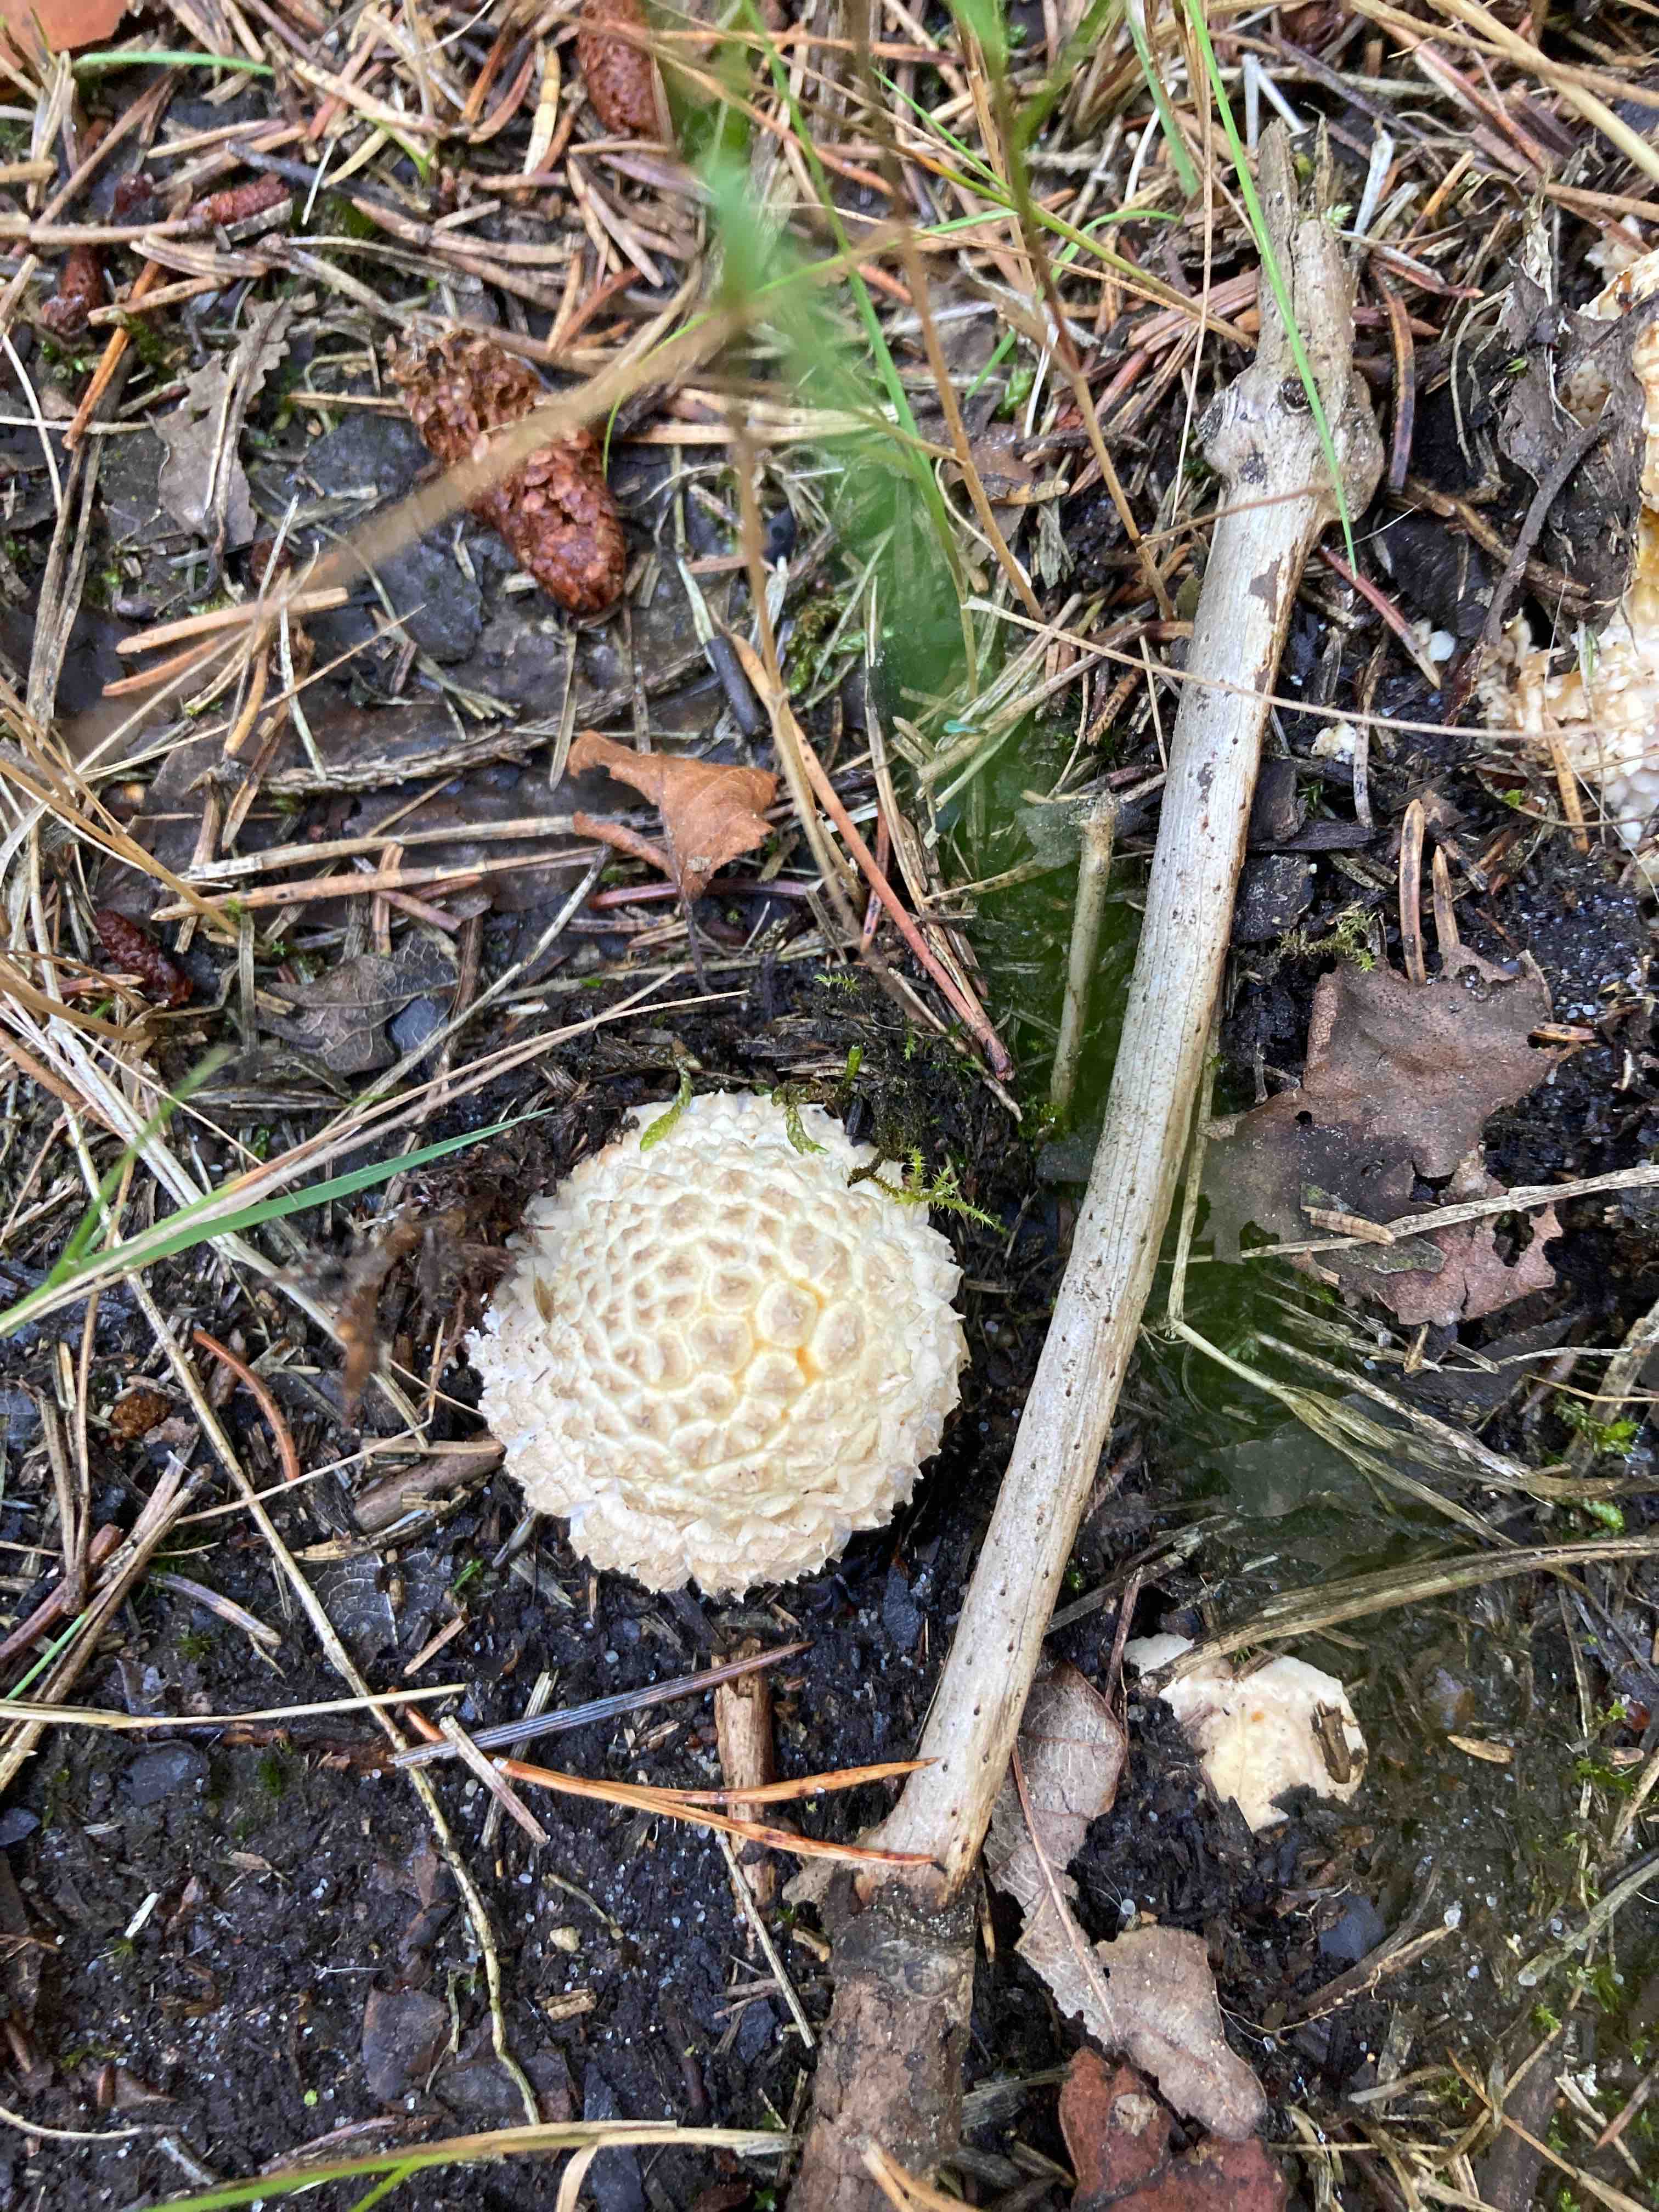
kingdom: Fungi
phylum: Basidiomycota
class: Agaricomycetes
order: Agaricales
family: Amanitaceae
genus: Amanita
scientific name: Amanita muscaria
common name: rød fluesvamp
